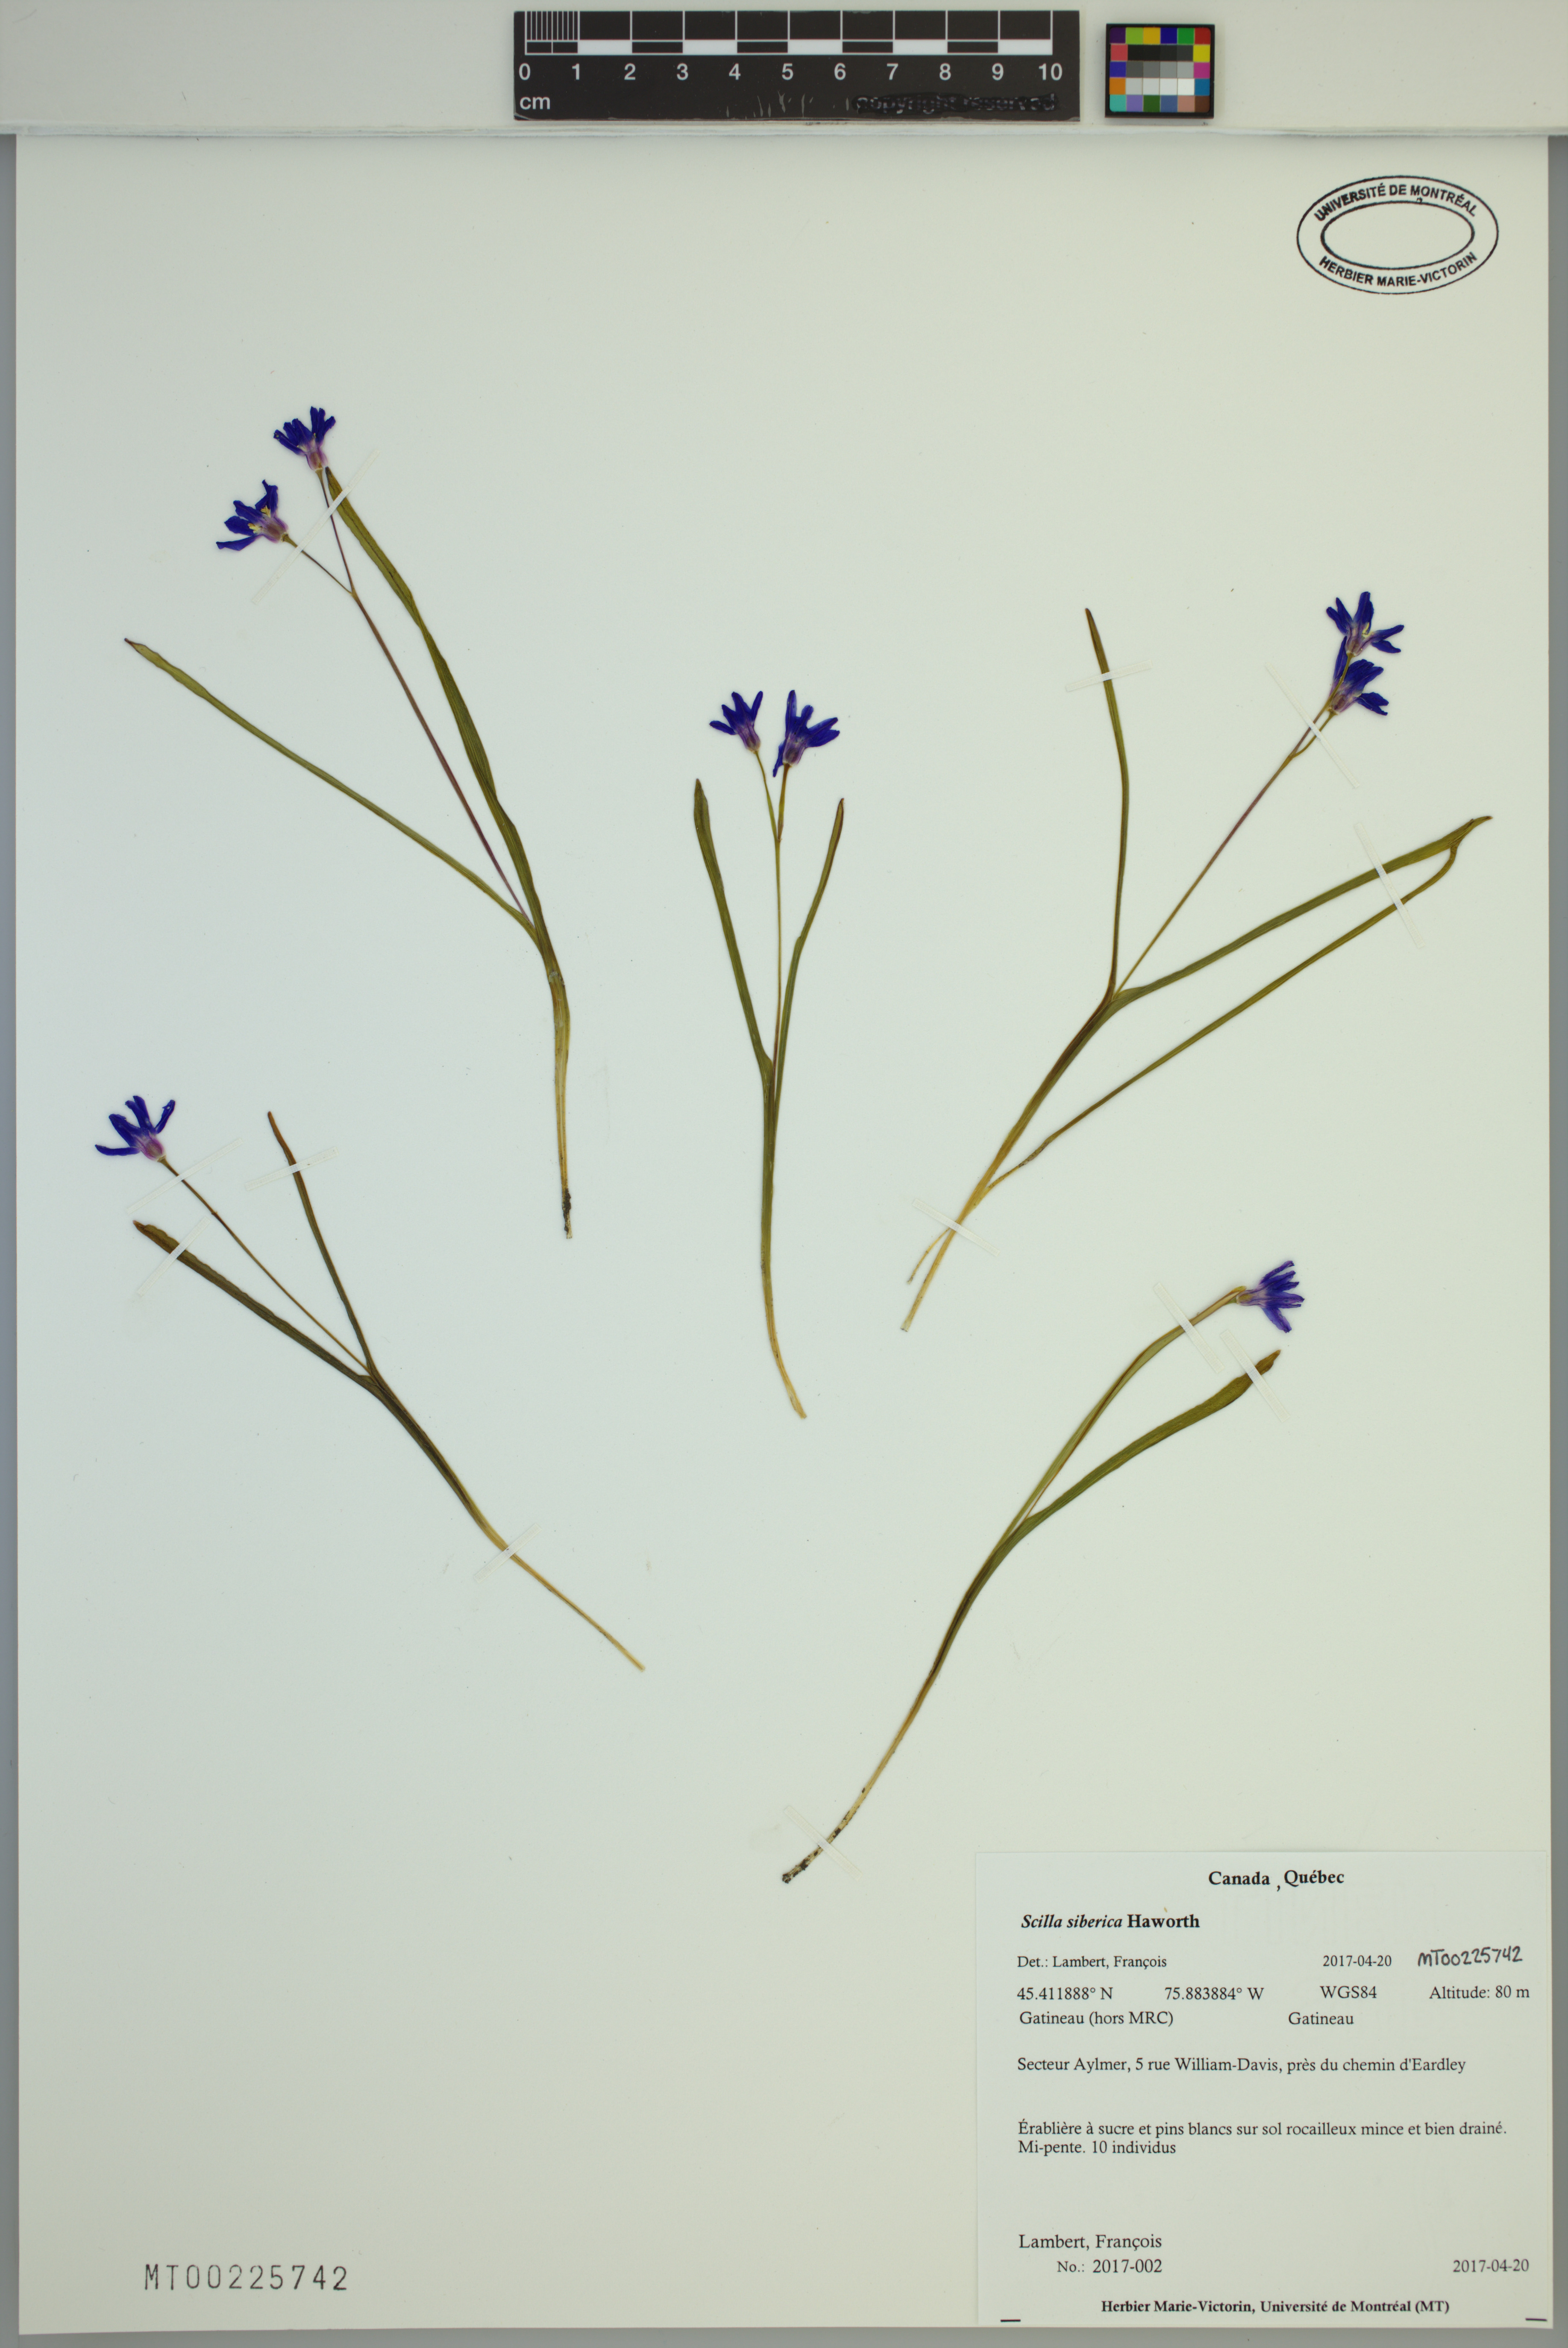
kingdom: Plantae
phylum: Tracheophyta
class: Liliopsida
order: Asparagales
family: Asparagaceae
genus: Scilla
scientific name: Scilla siberica
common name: Siberian squill
